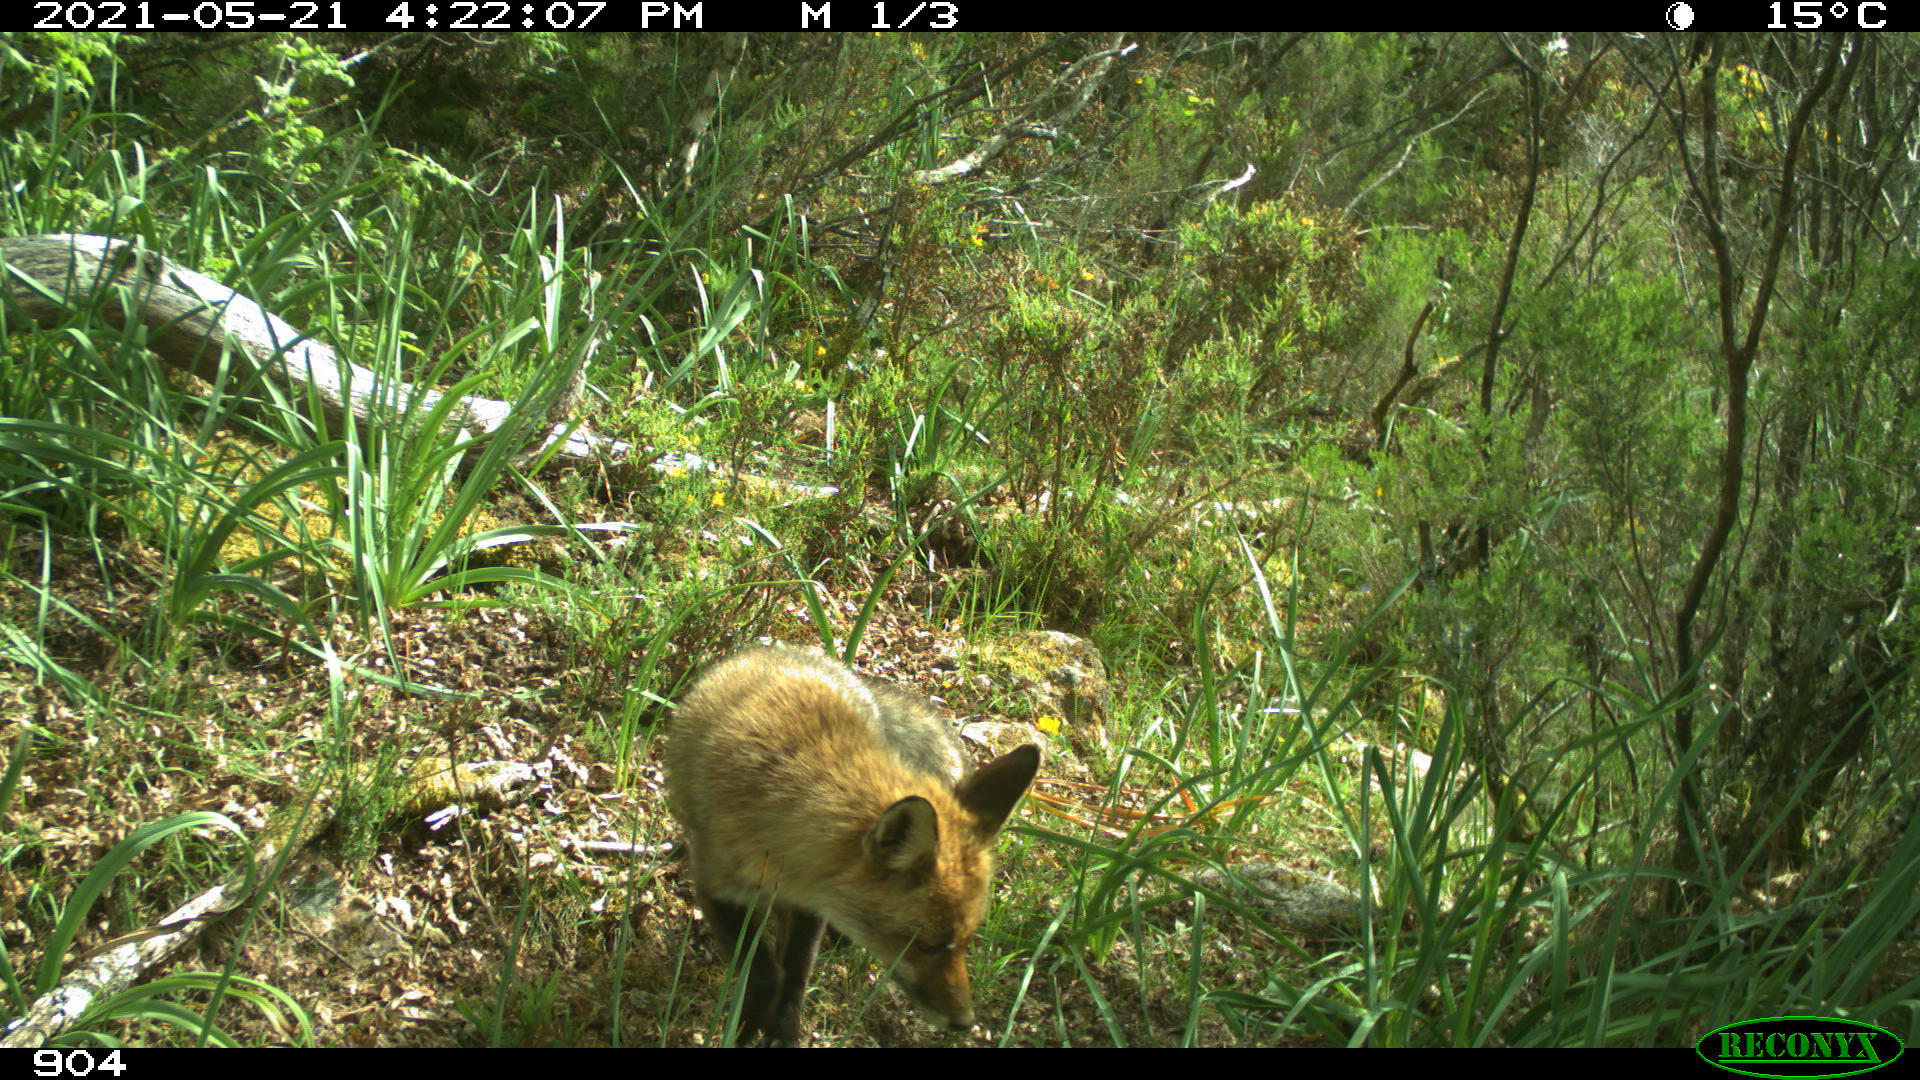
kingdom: Animalia
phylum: Chordata
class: Mammalia
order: Carnivora
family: Canidae
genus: Vulpes
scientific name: Vulpes vulpes
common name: Red fox
